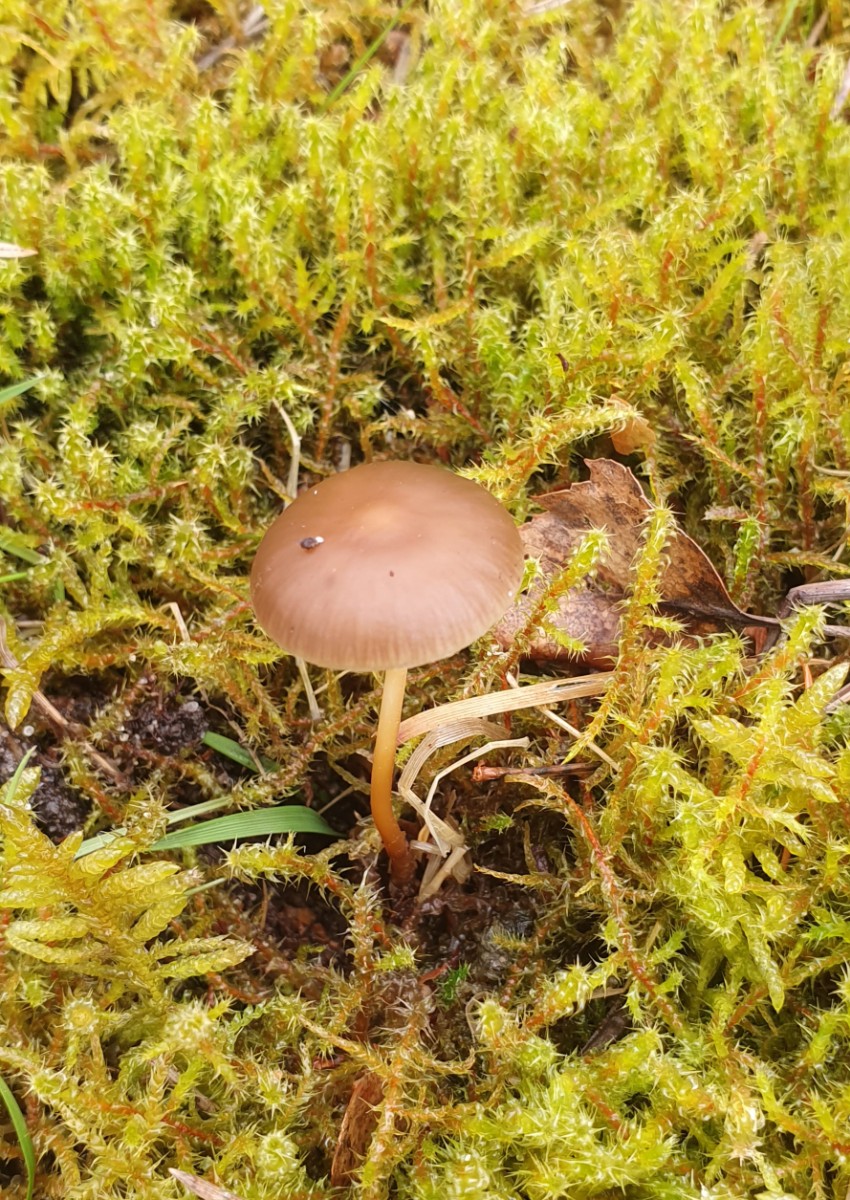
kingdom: Fungi
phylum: Basidiomycota
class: Agaricomycetes
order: Agaricales
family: Physalacriaceae
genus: Strobilurus
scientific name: Strobilurus stephanocystis
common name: fyrre-koglehat
